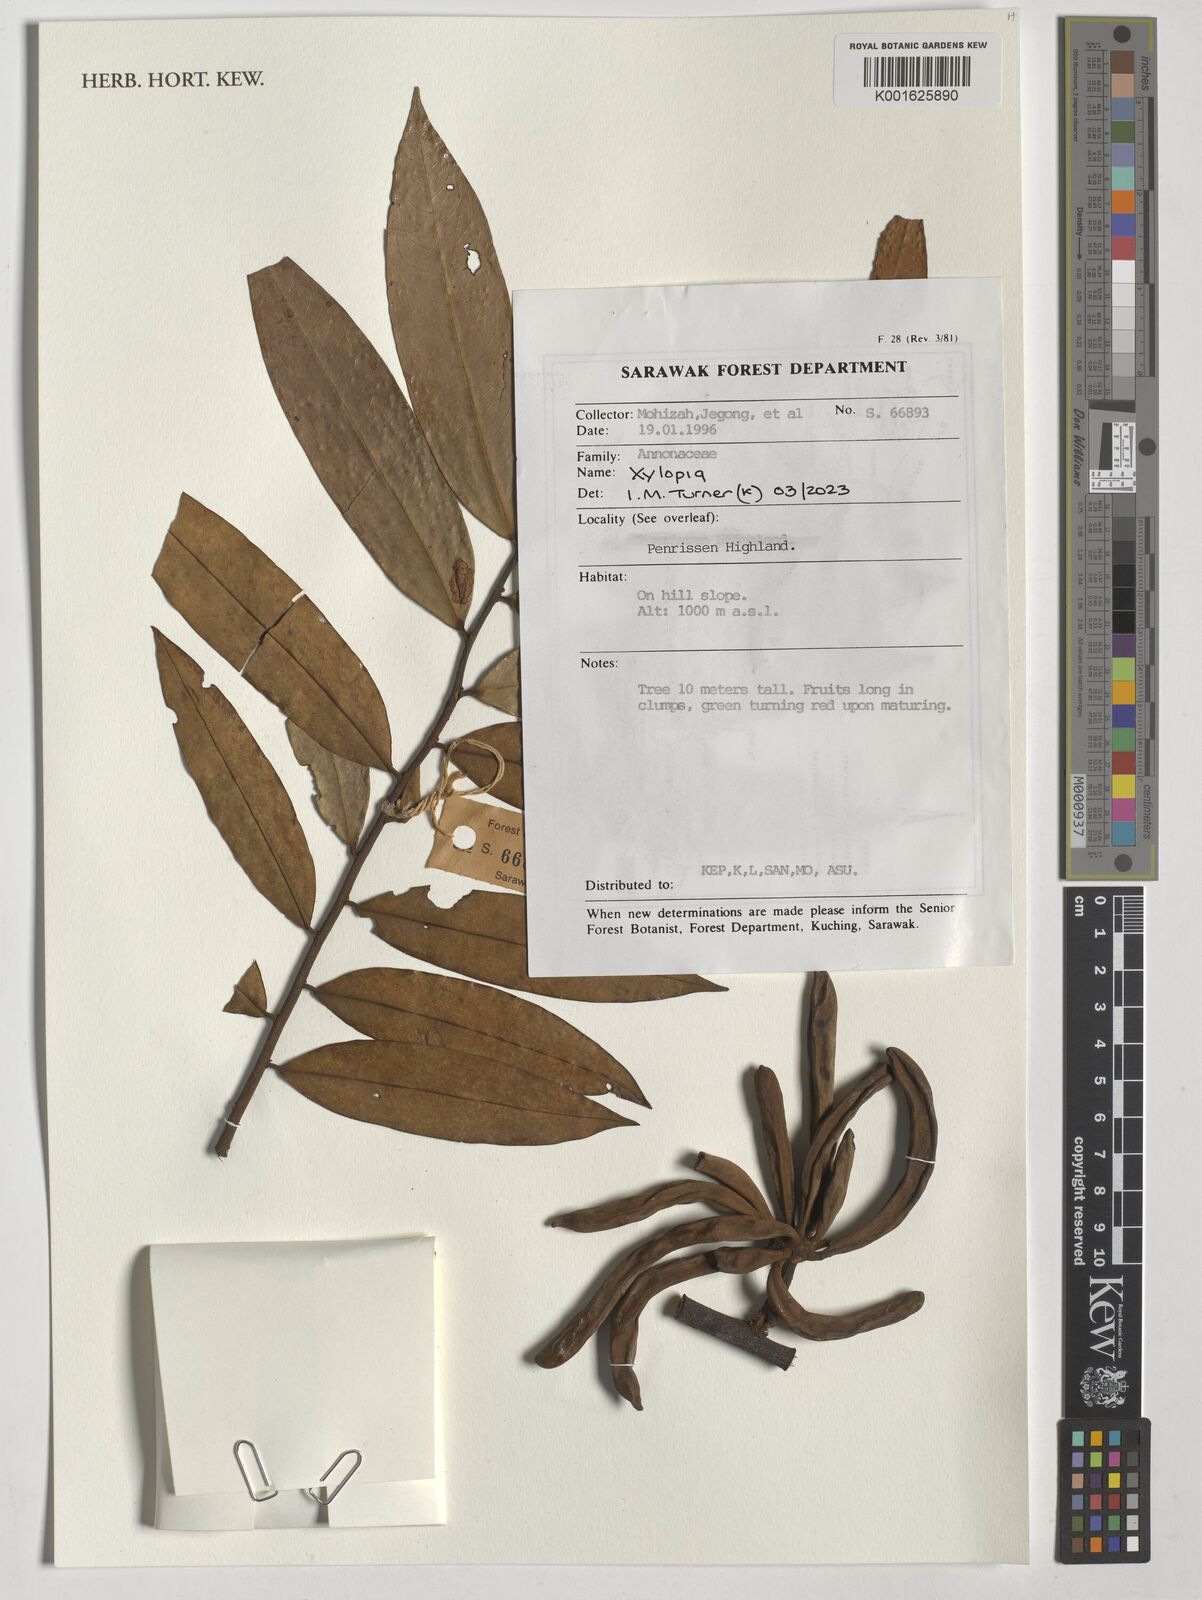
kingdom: Plantae
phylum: Tracheophyta
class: Magnoliopsida
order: Magnoliales
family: Annonaceae
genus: Xylopia
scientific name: Xylopia
